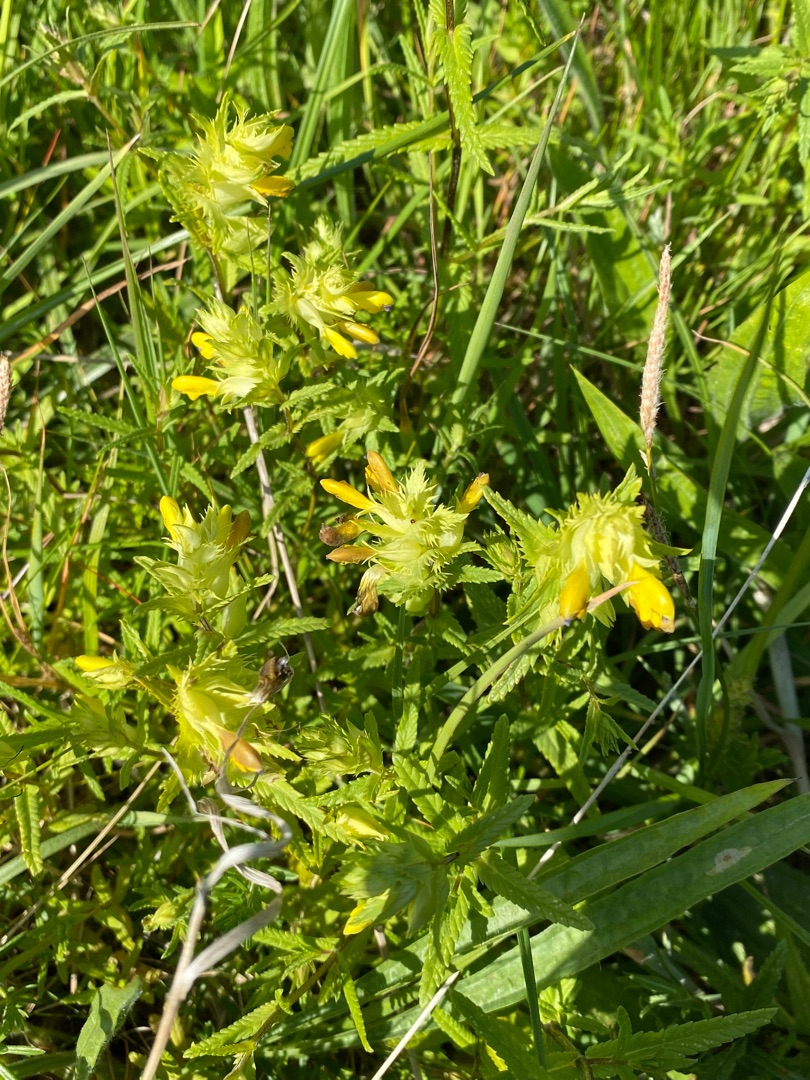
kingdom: Plantae
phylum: Tracheophyta
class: Magnoliopsida
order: Lamiales
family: Orobanchaceae
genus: Rhinanthus
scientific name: Rhinanthus
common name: Stor skjaller
